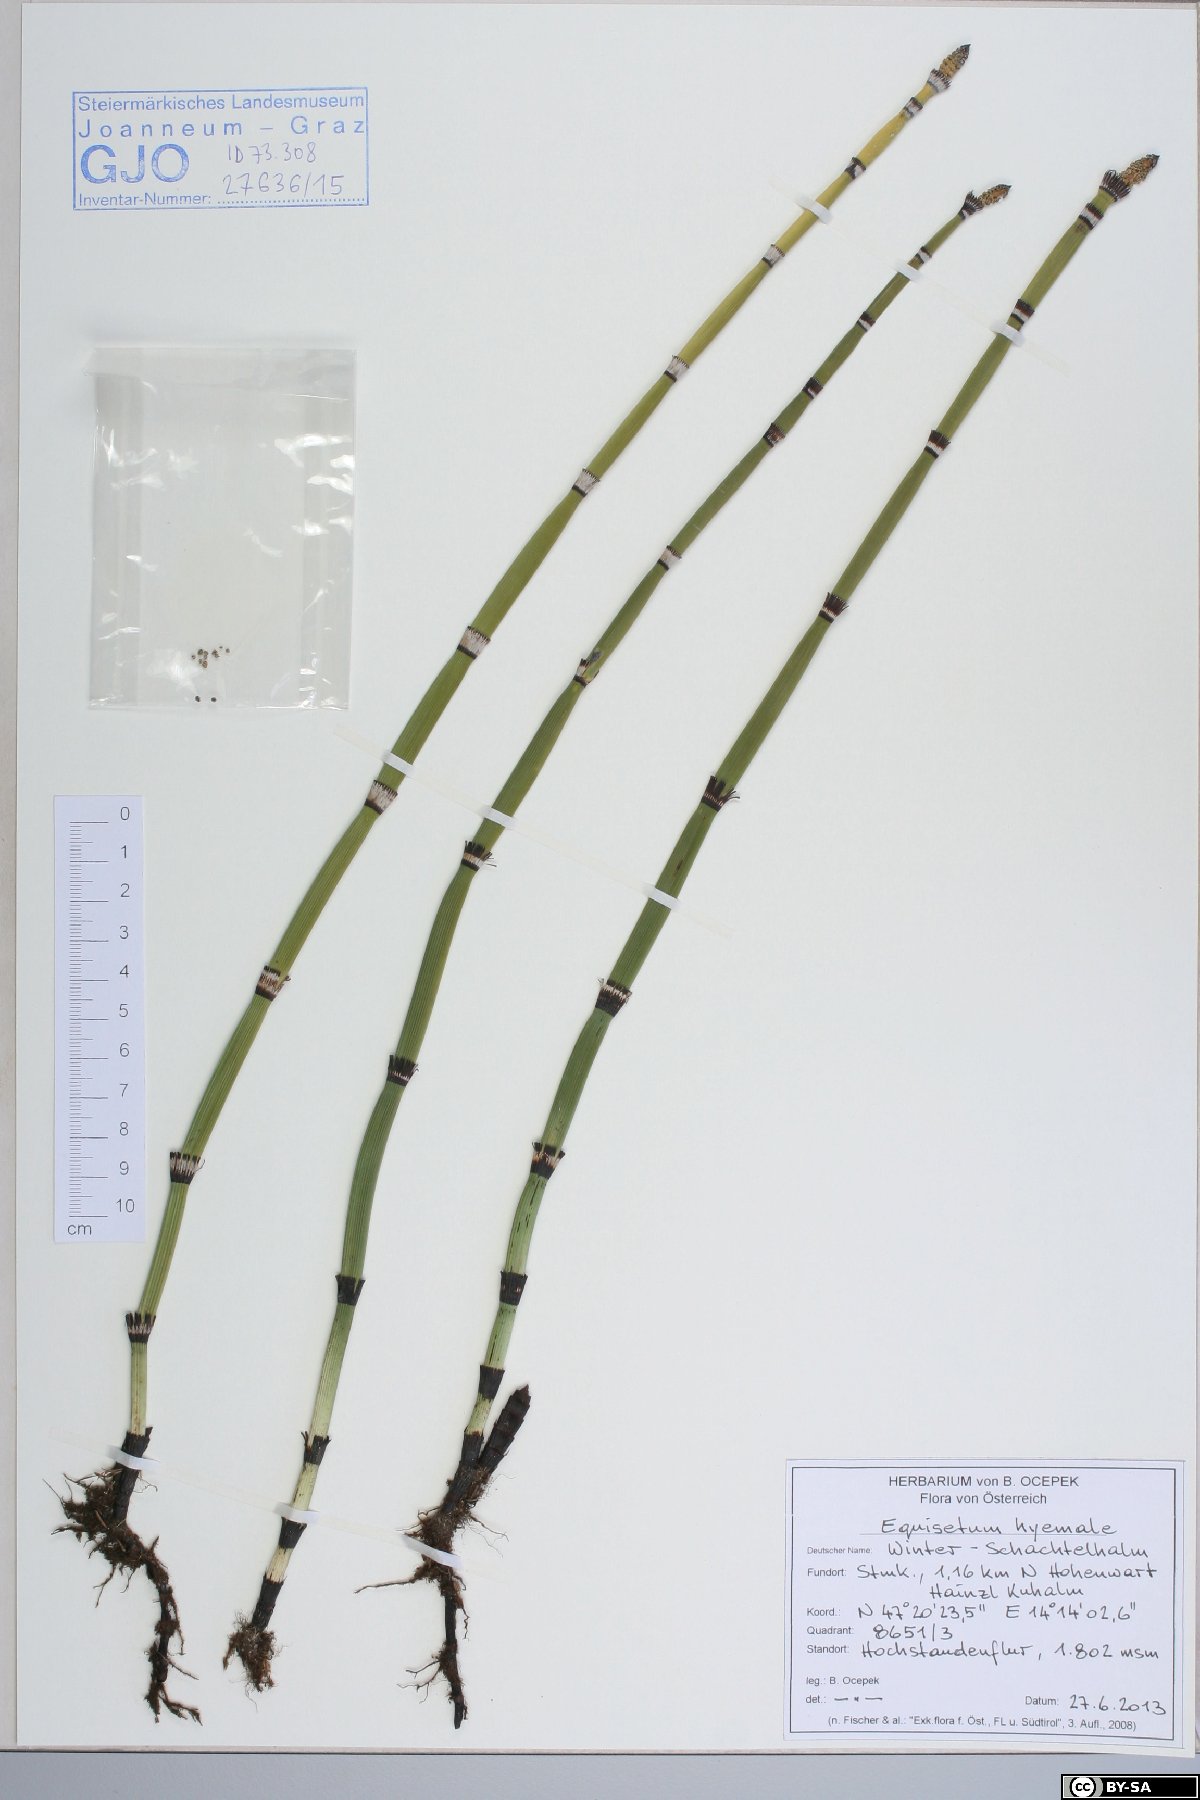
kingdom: Plantae
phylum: Tracheophyta
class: Polypodiopsida
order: Equisetales
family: Equisetaceae
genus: Equisetum
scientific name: Equisetum hyemale
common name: Rough horsetail
